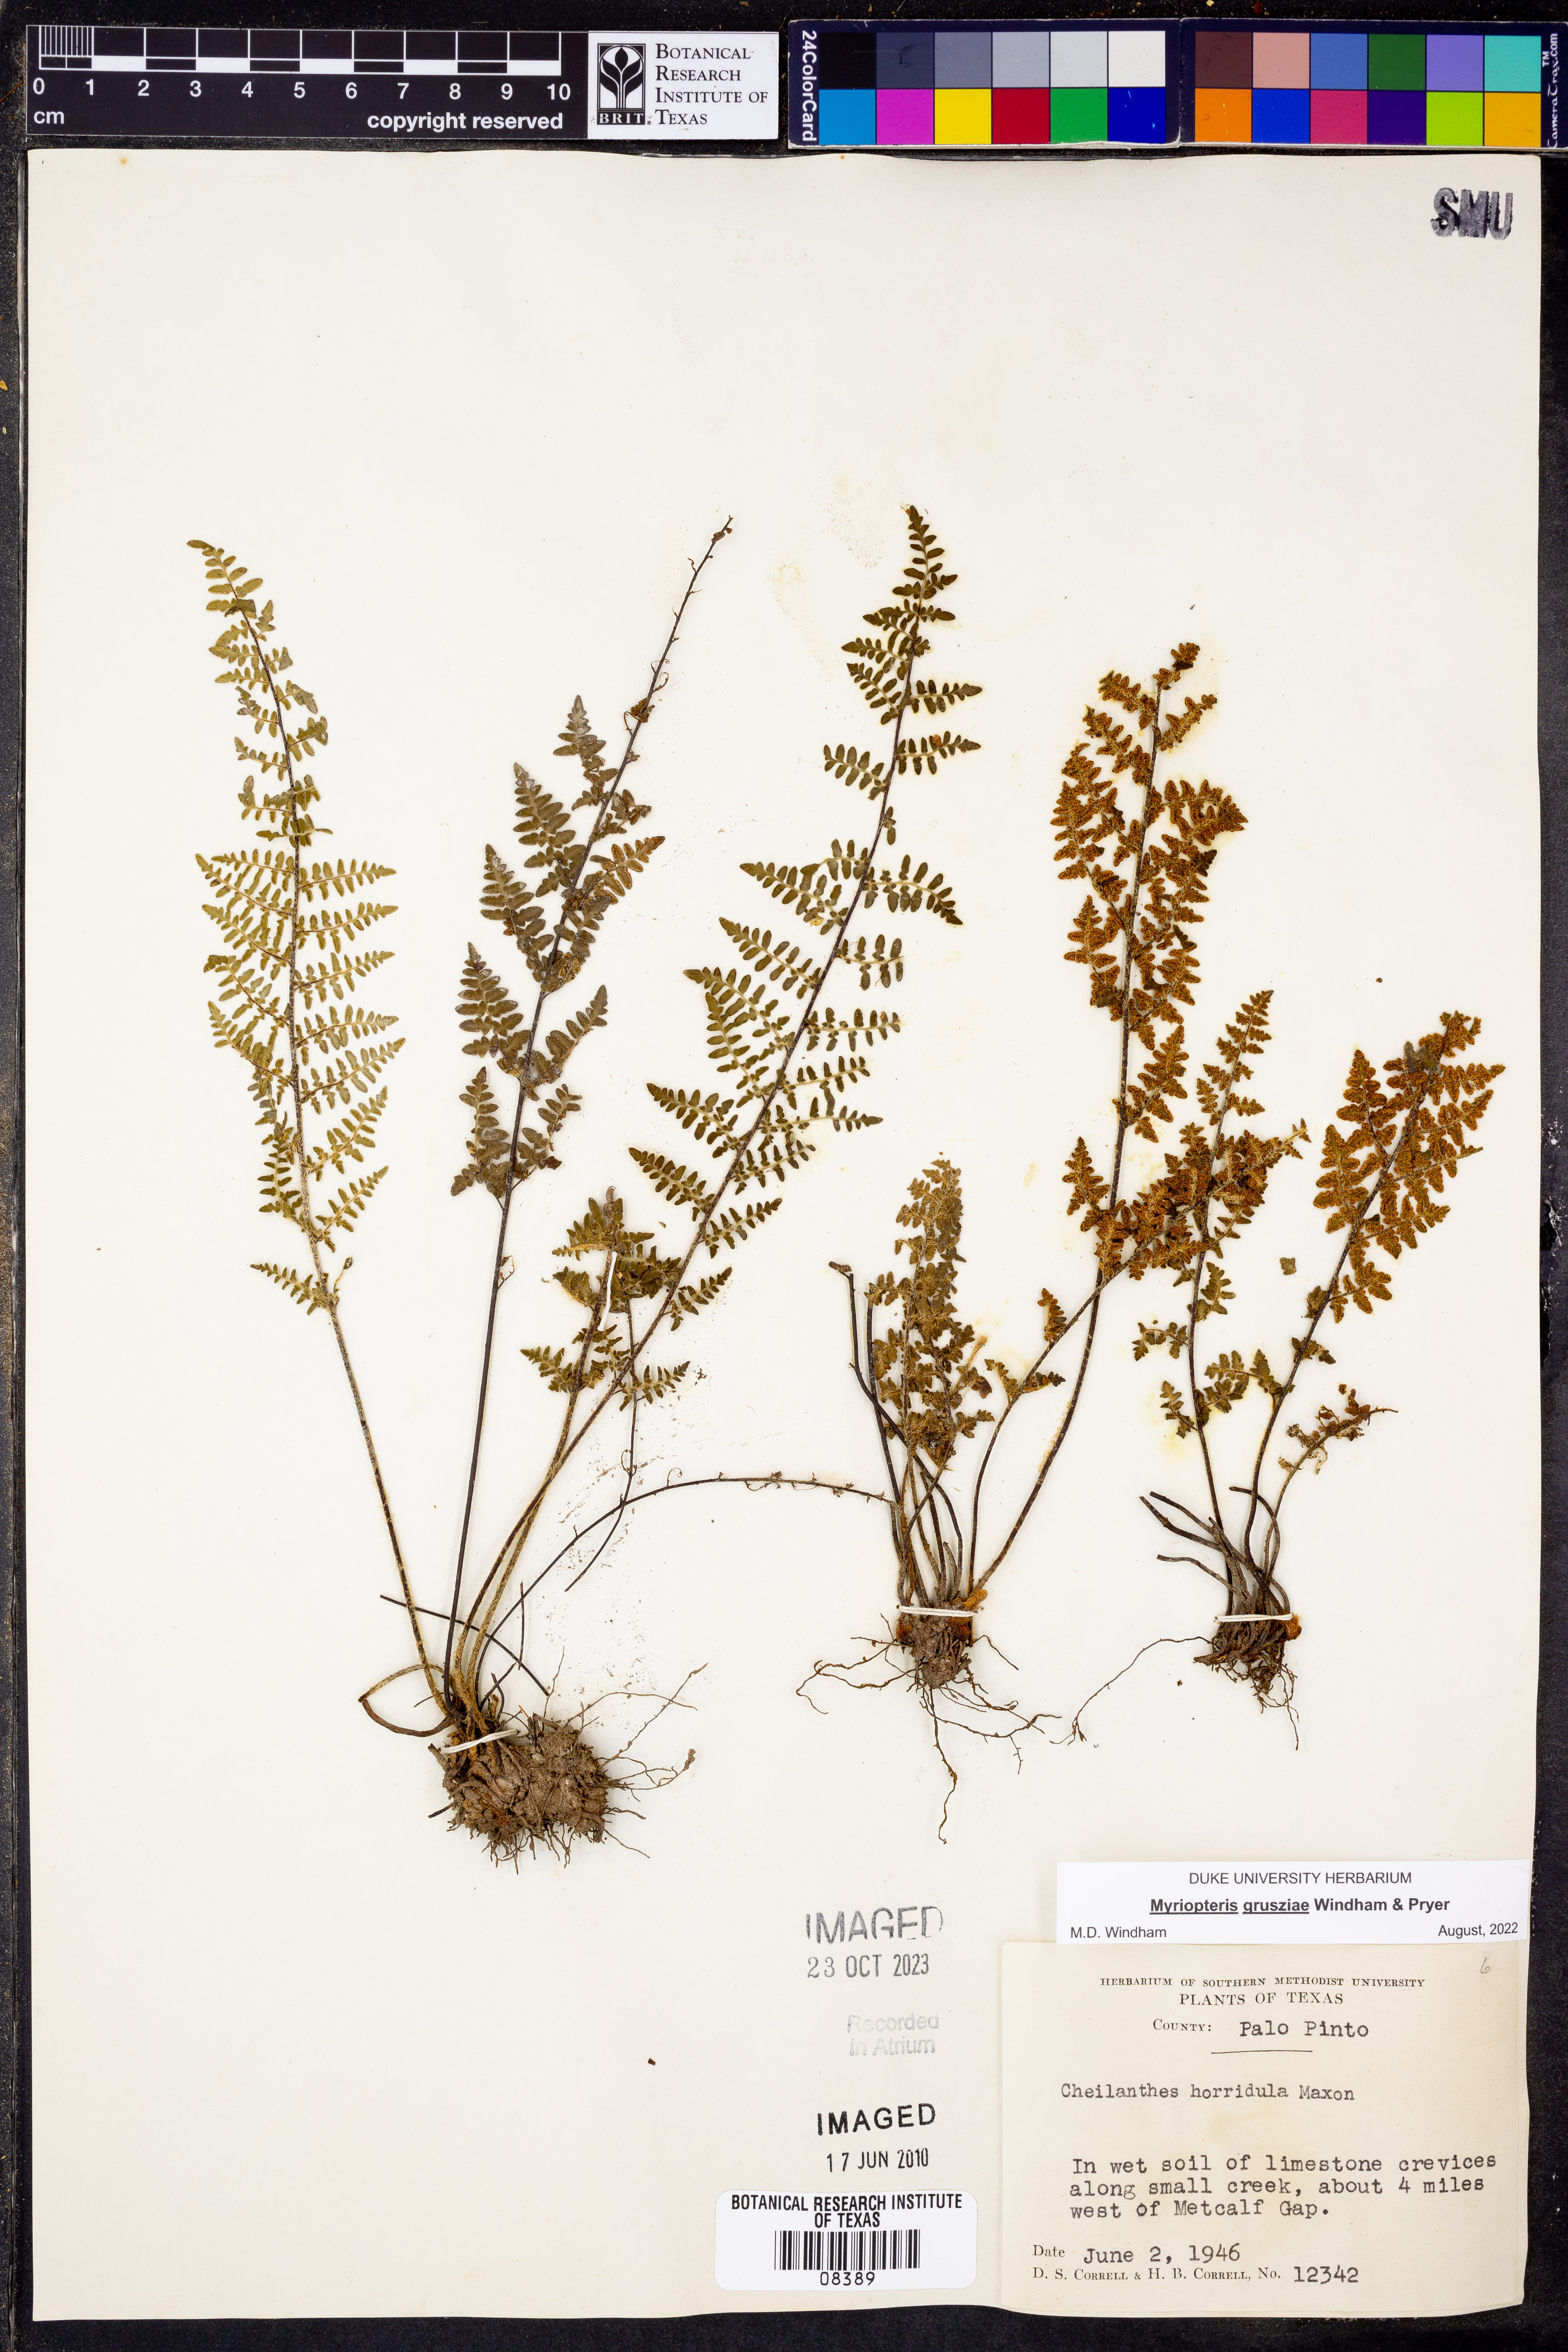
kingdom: Plantae
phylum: Tracheophyta
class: Polypodiopsida
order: Polypodiales
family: Pteridaceae
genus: Myriopteris
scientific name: Myriopteris grusziae
